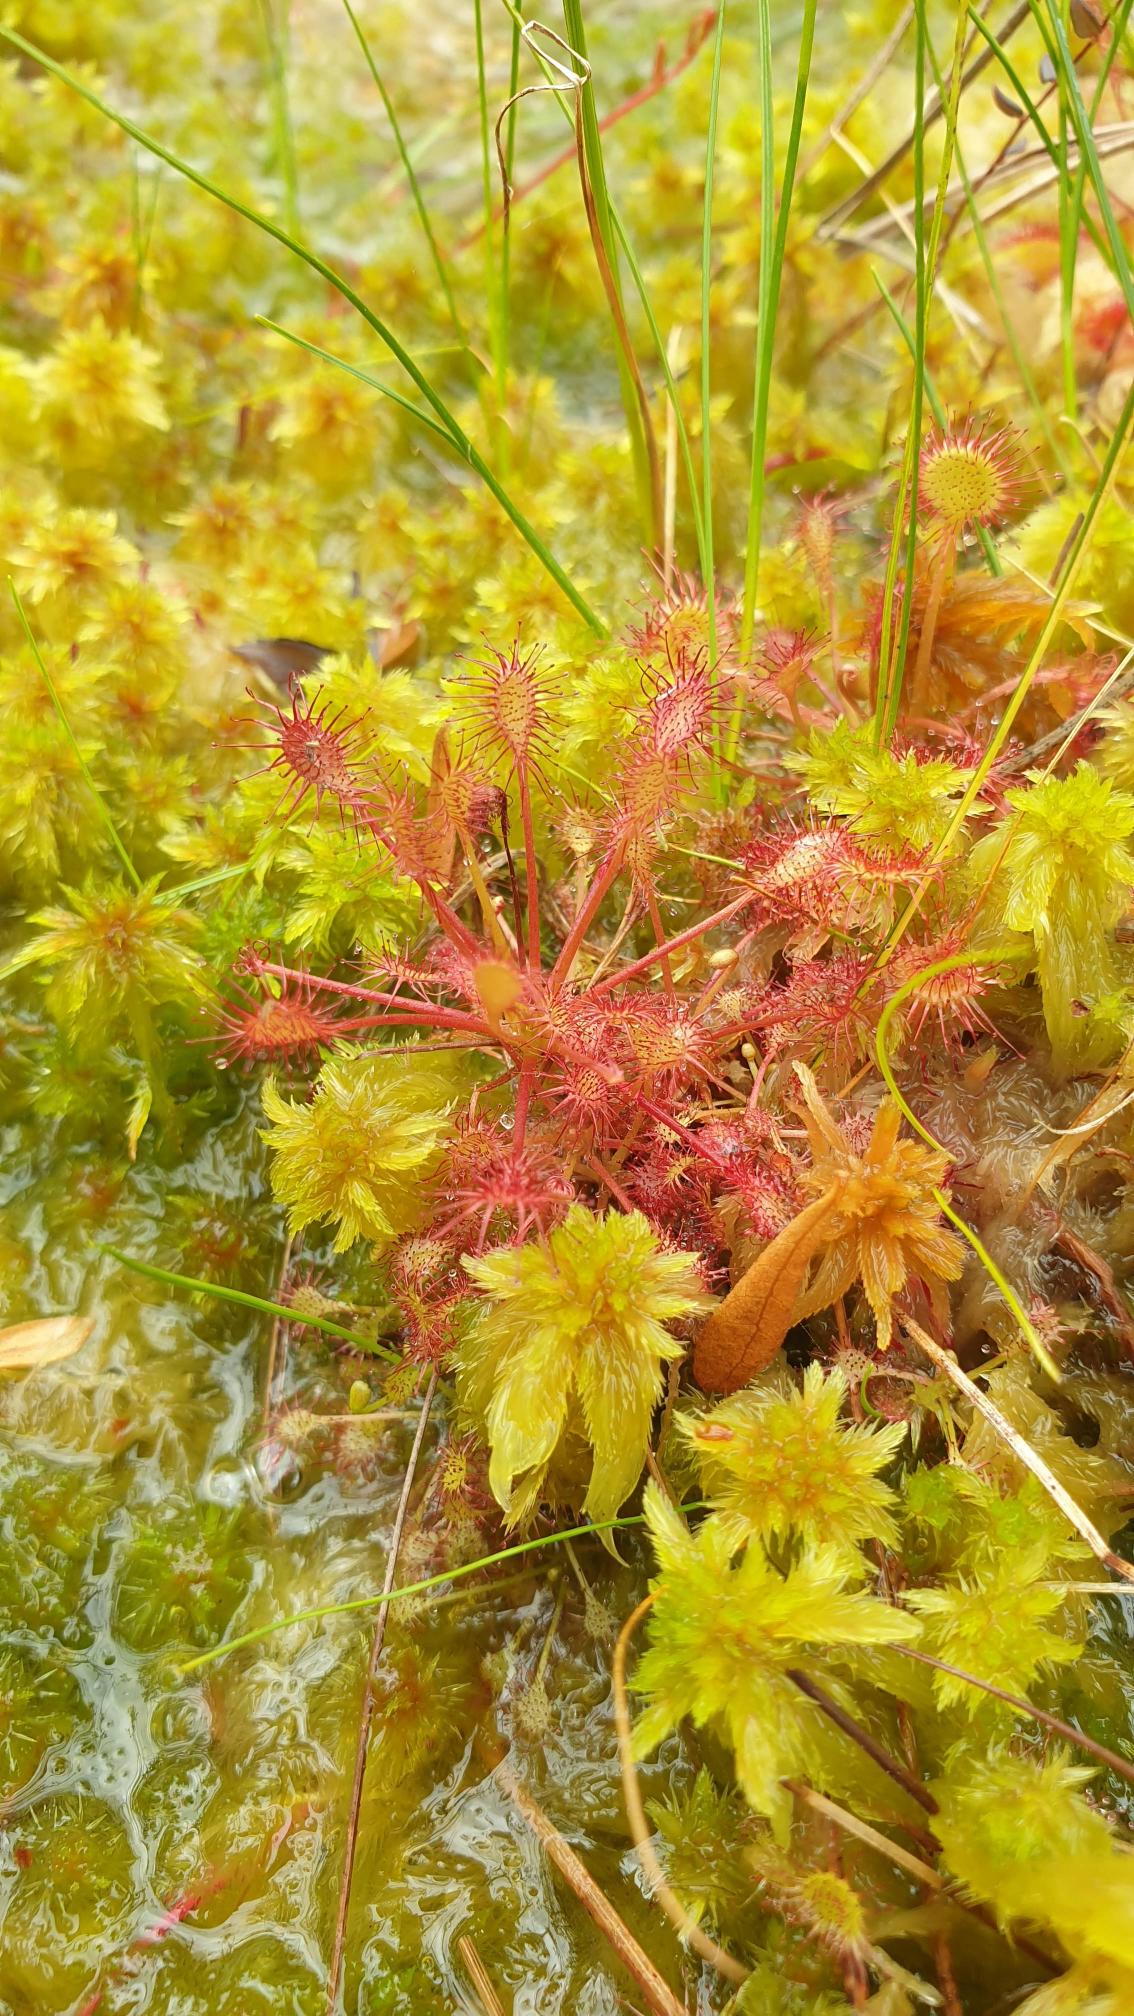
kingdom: Plantae
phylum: Tracheophyta
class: Magnoliopsida
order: Caryophyllales
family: Droseraceae
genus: Drosera
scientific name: Drosera intermedia
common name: Liden soldug
